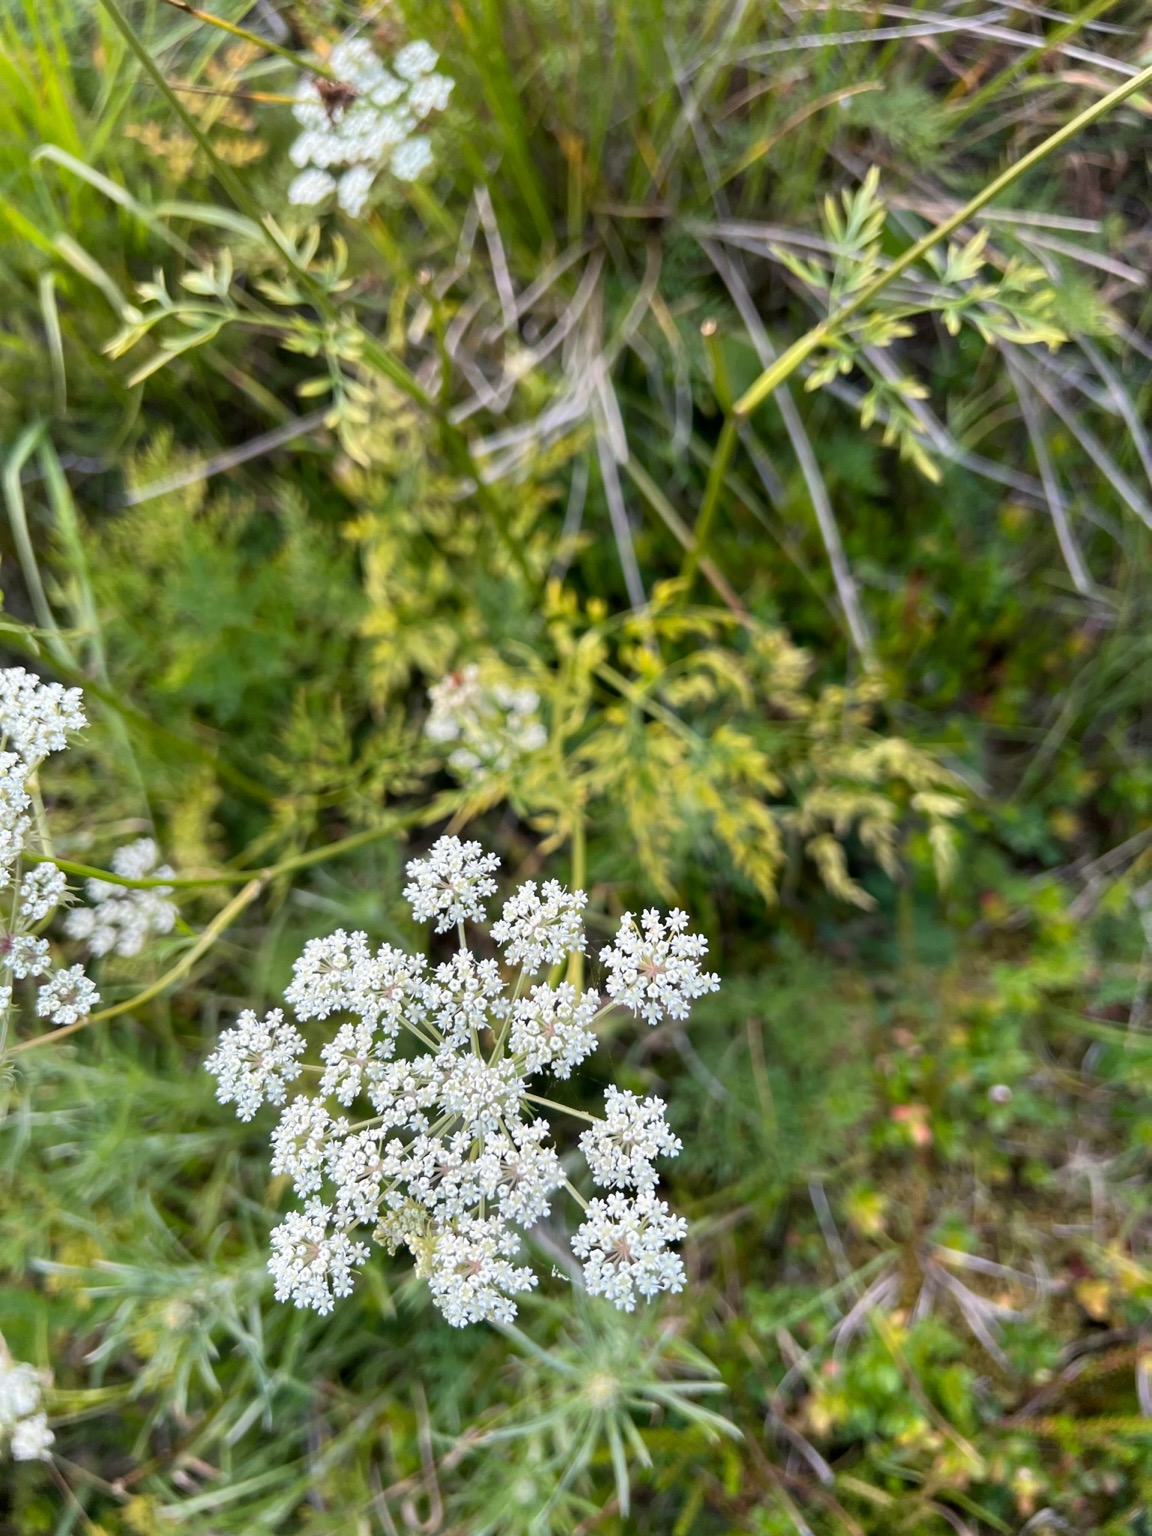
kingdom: Plantae
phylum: Tracheophyta
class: Magnoliopsida
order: Apiales
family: Apiaceae
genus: Thysselinum
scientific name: Thysselinum palustre
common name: Kær-svovlrod
